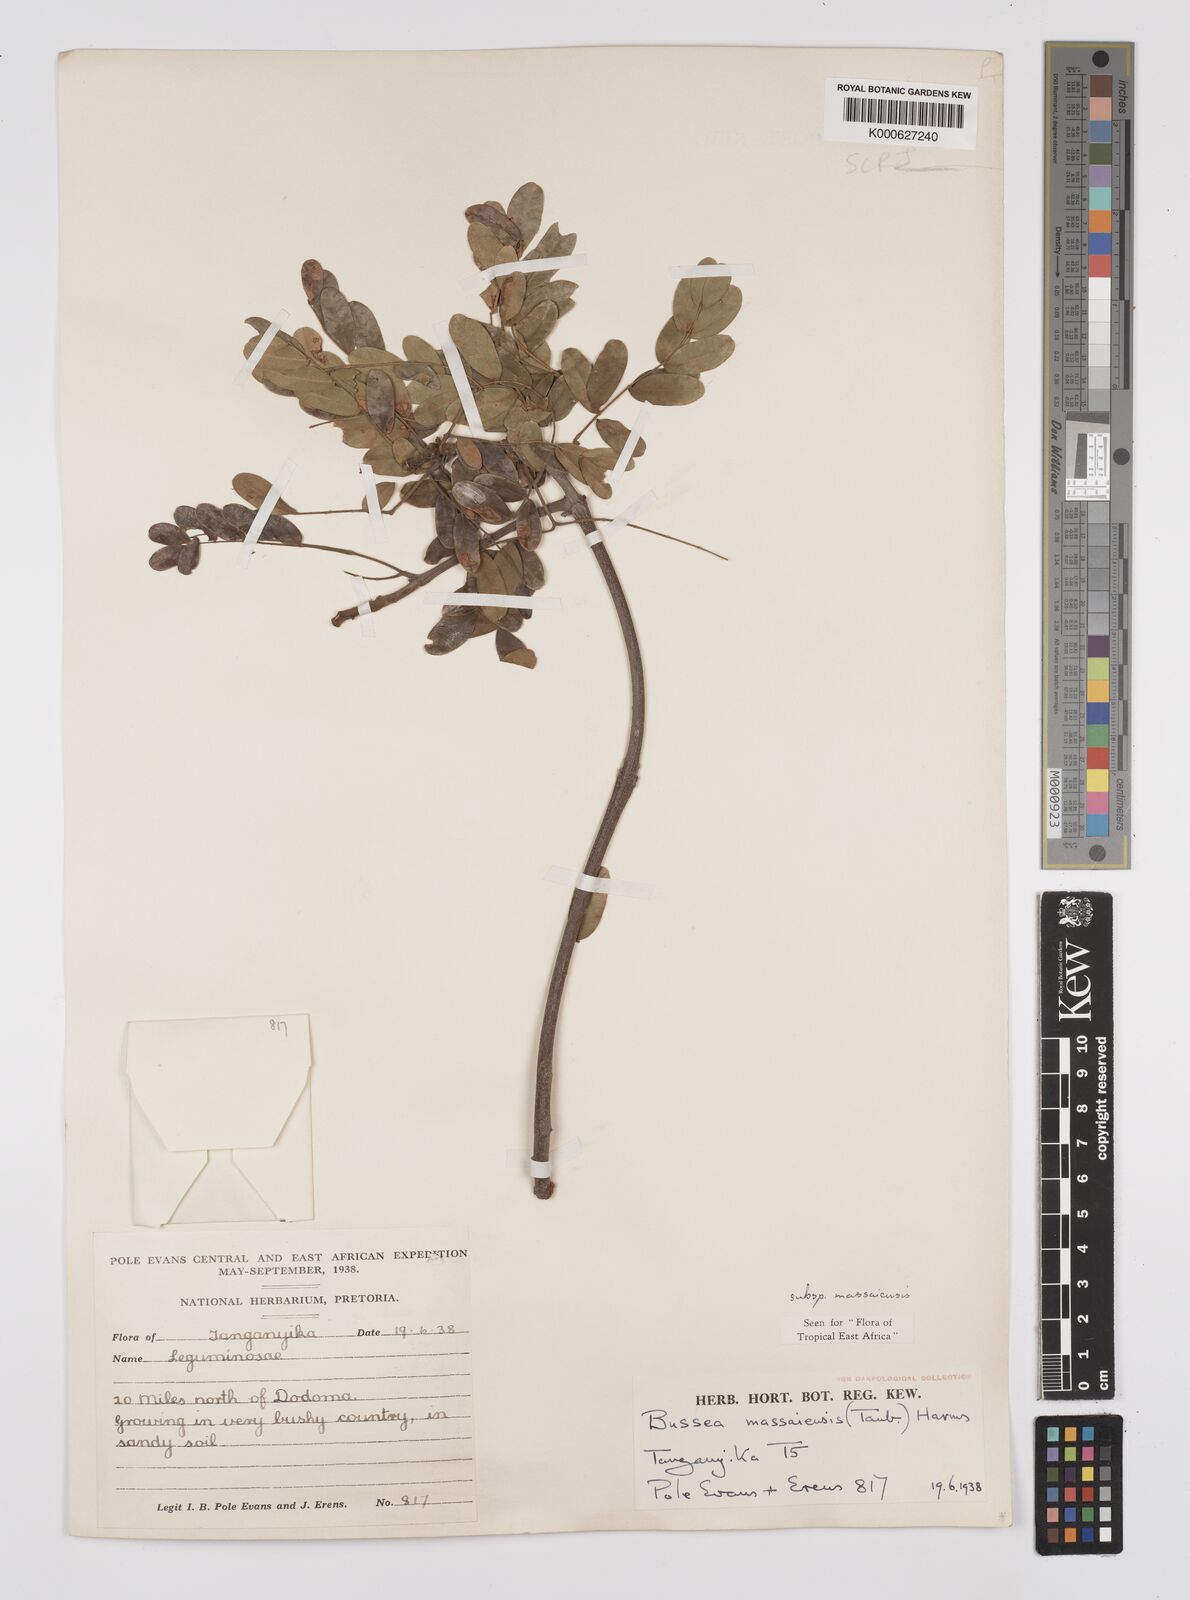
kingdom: Plantae
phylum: Tracheophyta
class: Magnoliopsida
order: Fabales
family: Fabaceae
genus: Bussea
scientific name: Bussea
